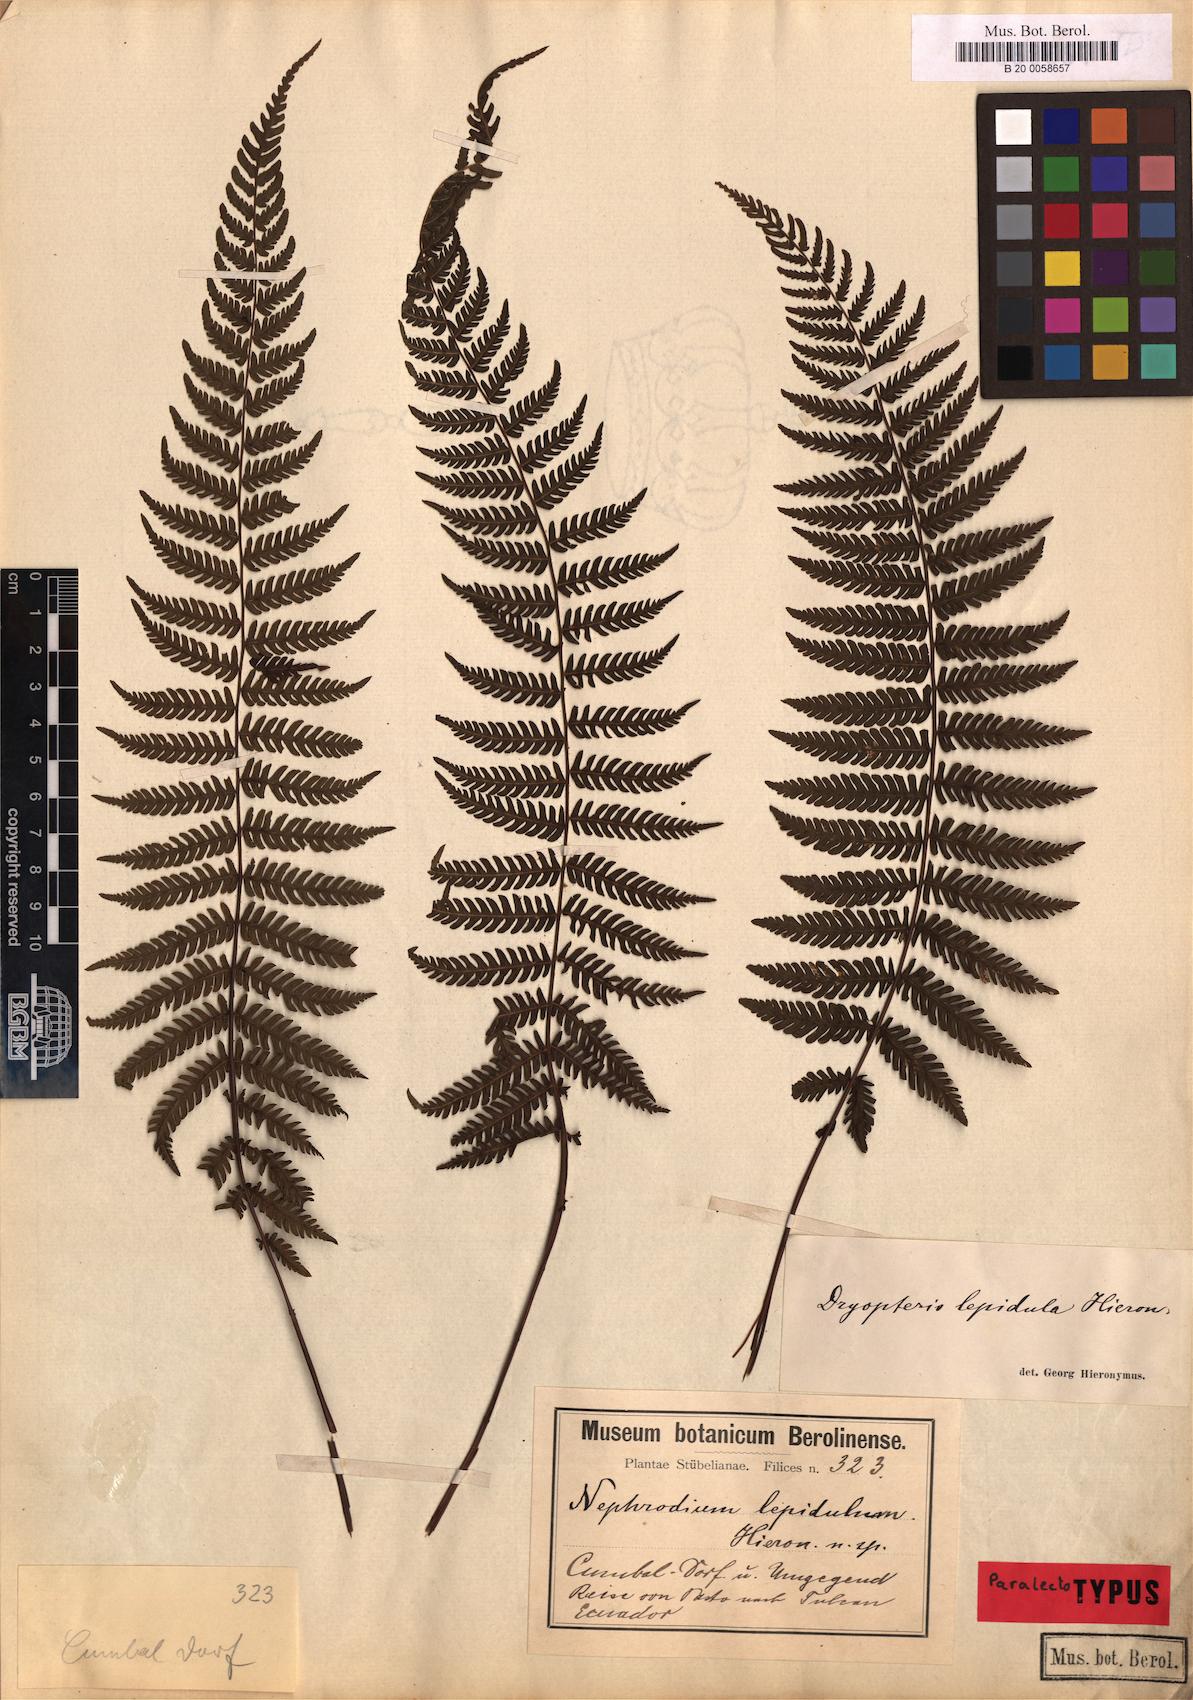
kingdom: Plantae
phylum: Tracheophyta
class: Polypodiopsida
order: Polypodiales
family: Thelypteridaceae
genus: Amauropelta
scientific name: Amauropelta lepidula
